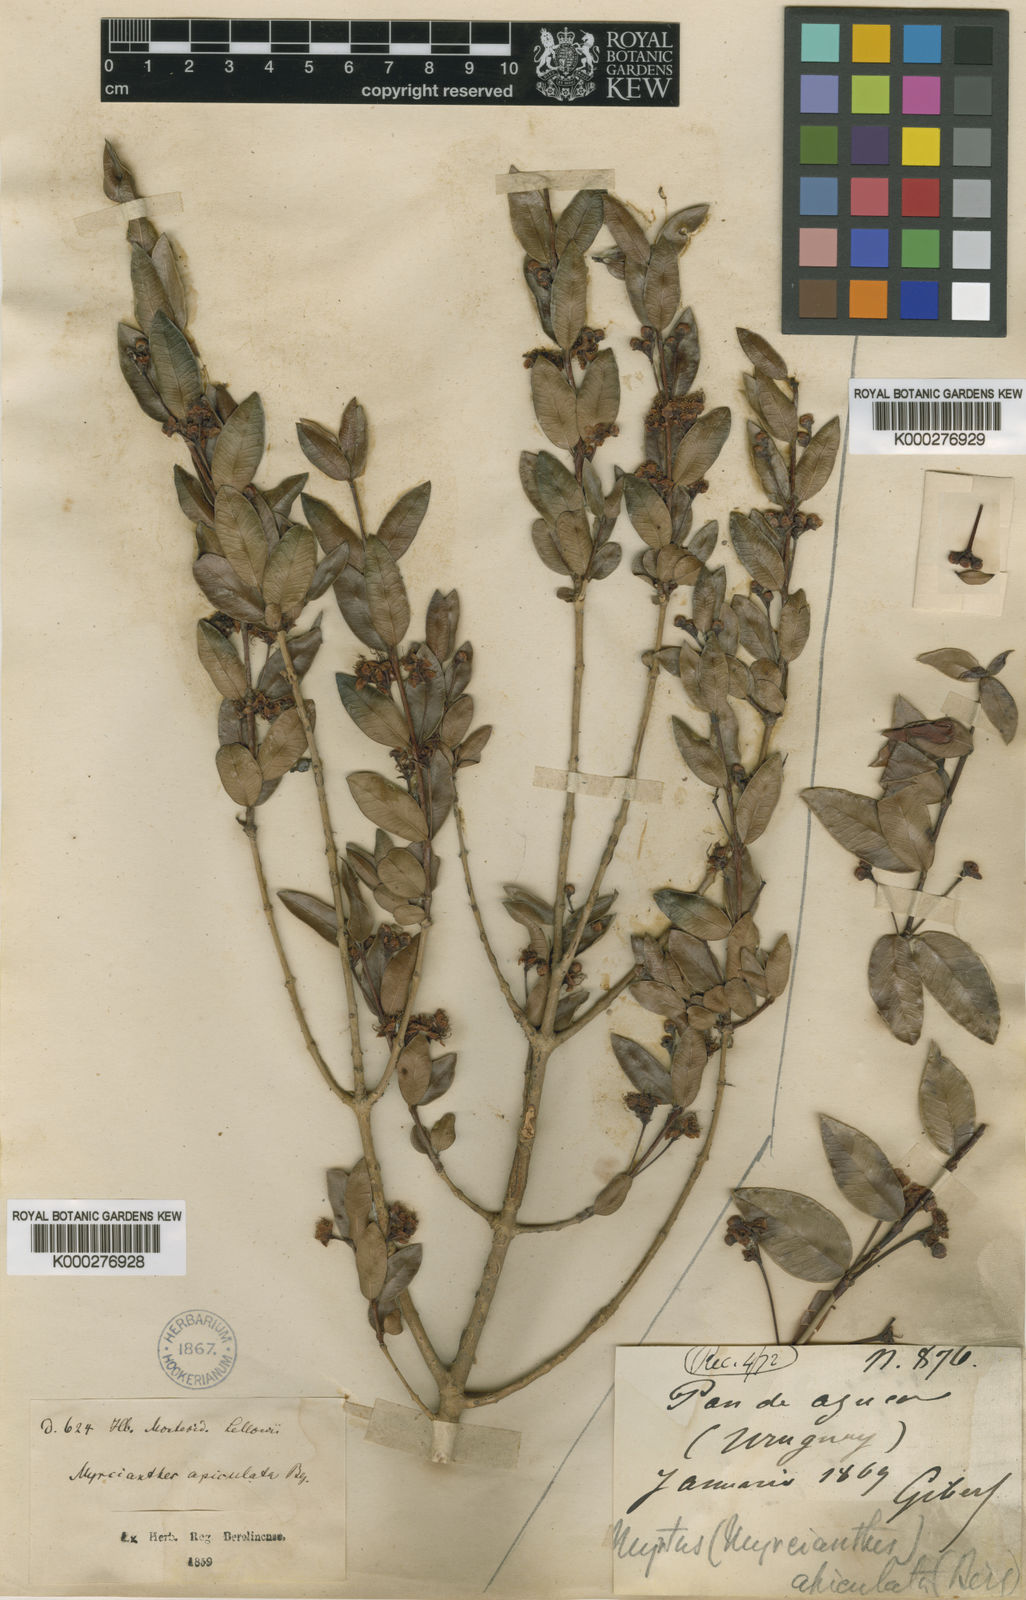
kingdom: Plantae
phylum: Tracheophyta
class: Magnoliopsida
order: Myrtales
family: Myrtaceae
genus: Myrcianthes
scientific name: Myrcianthes cisplatensis
